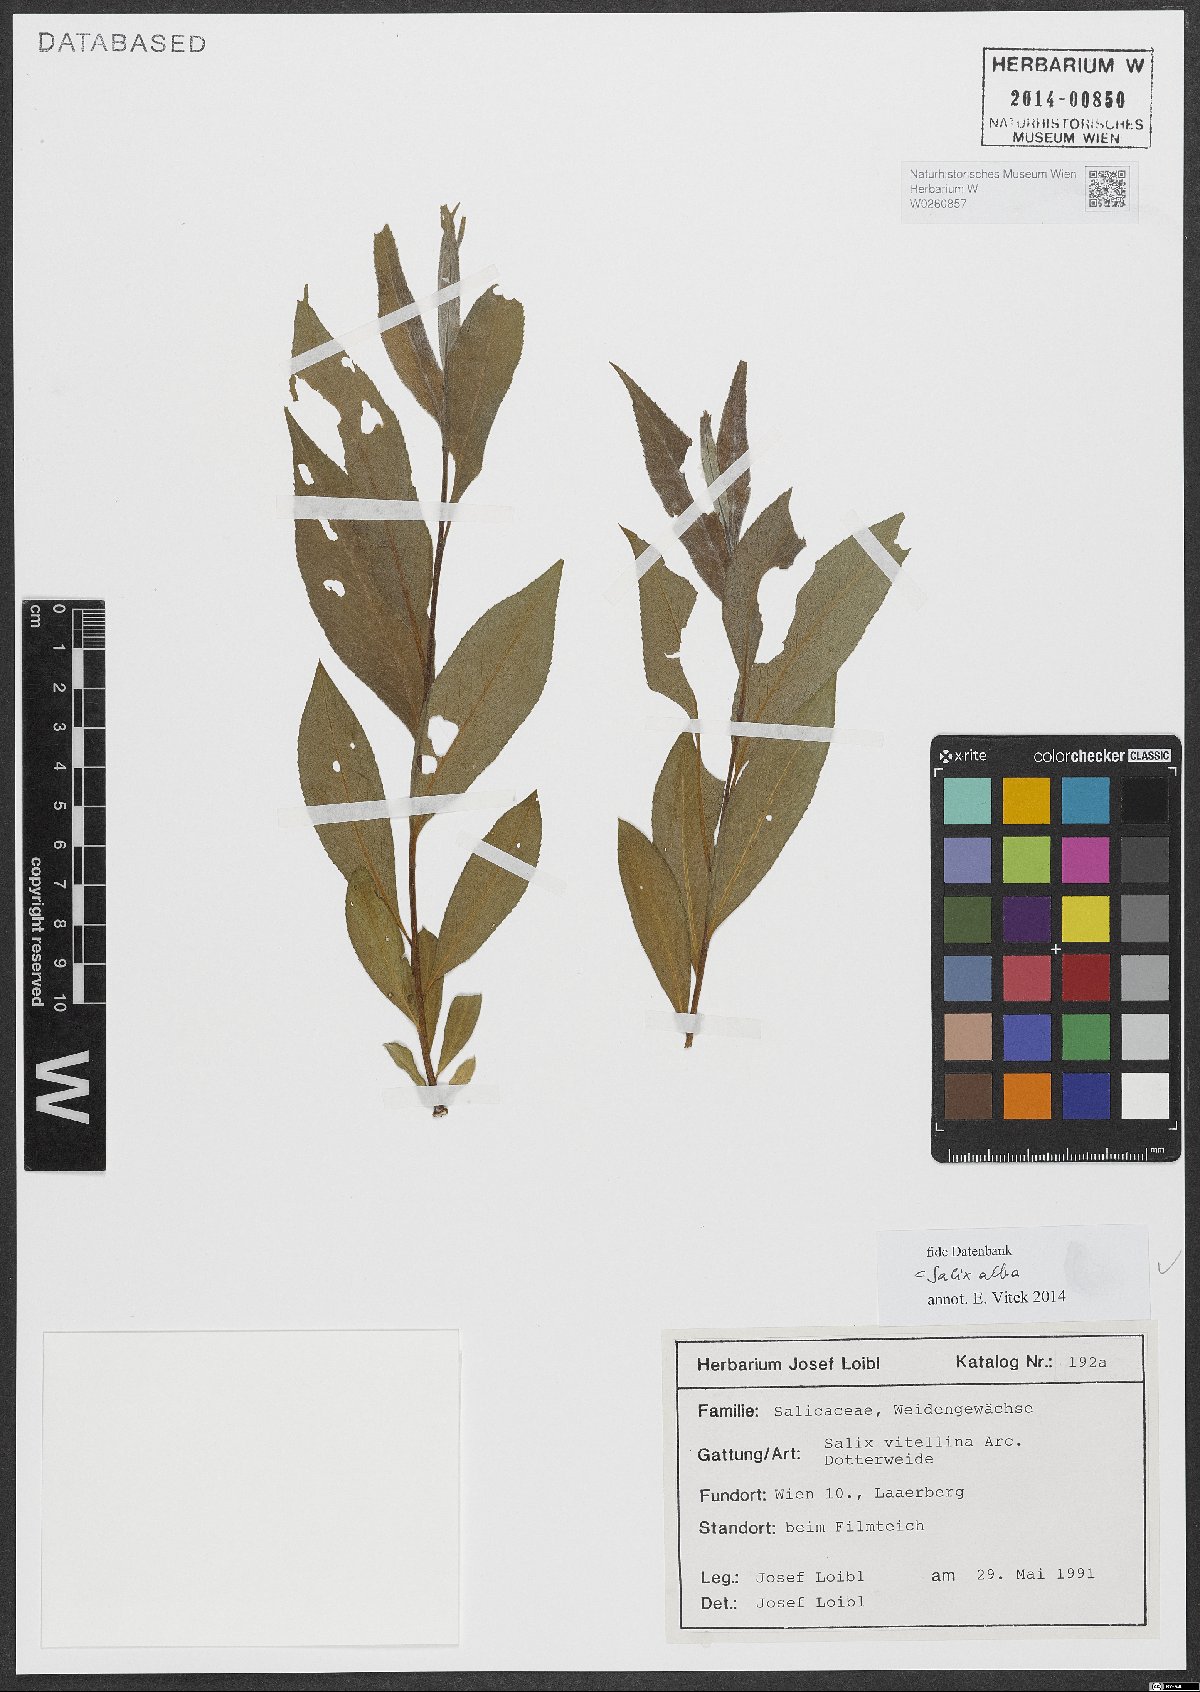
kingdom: Plantae
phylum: Tracheophyta
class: Magnoliopsida
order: Malpighiales
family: Salicaceae
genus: Salix
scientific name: Salix alba
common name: White willow
